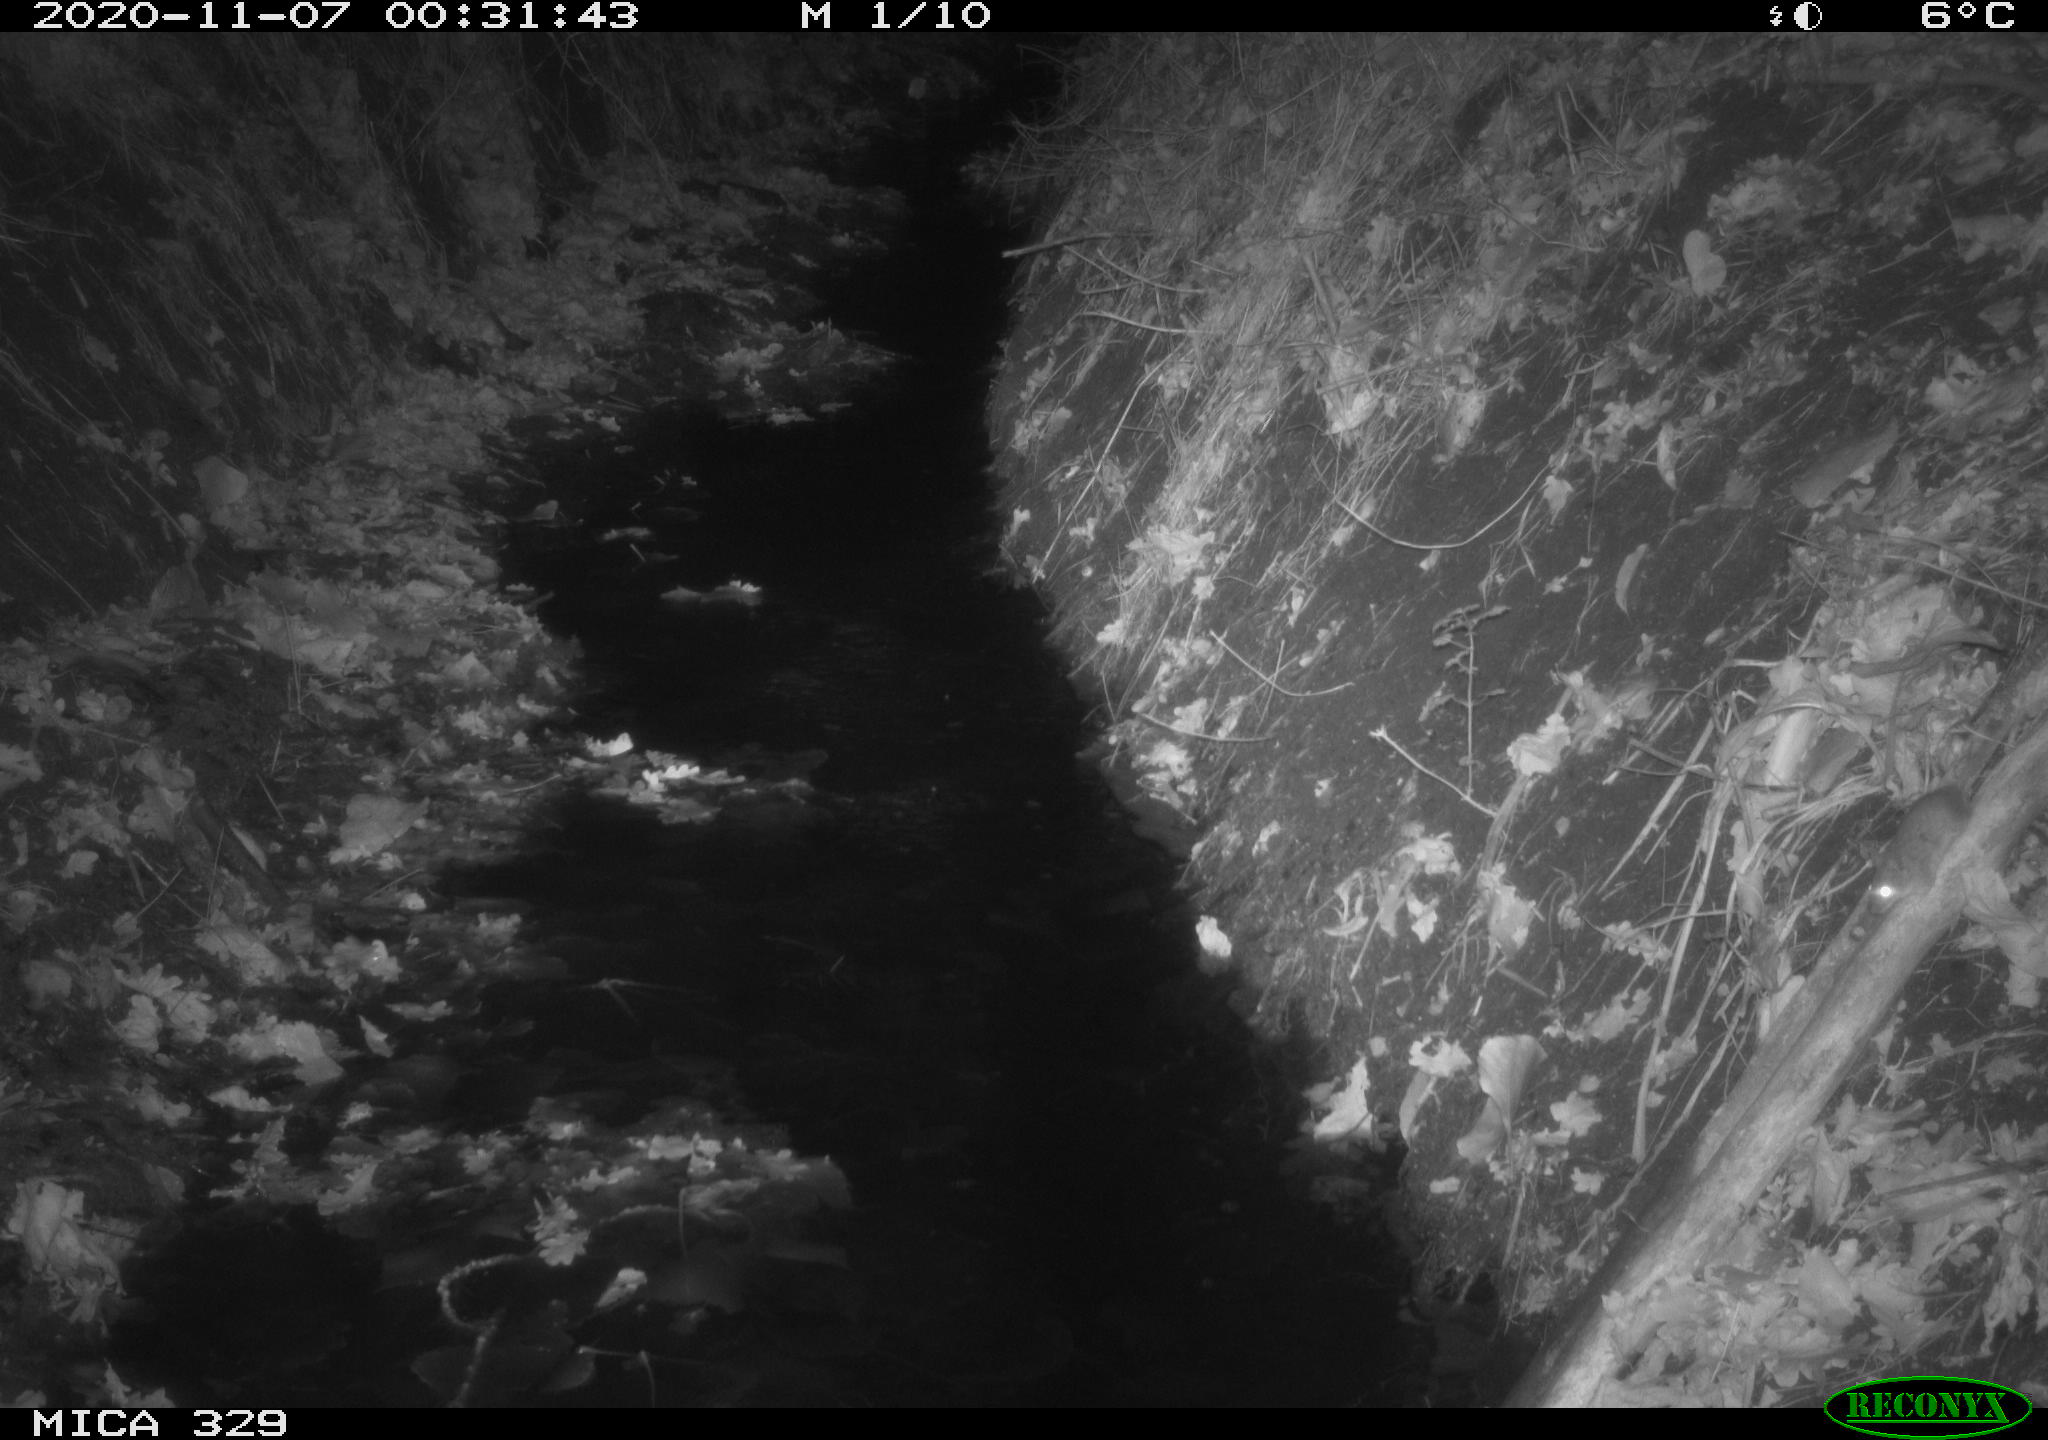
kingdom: Animalia
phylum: Chordata
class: Mammalia
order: Rodentia
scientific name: Rodentia
